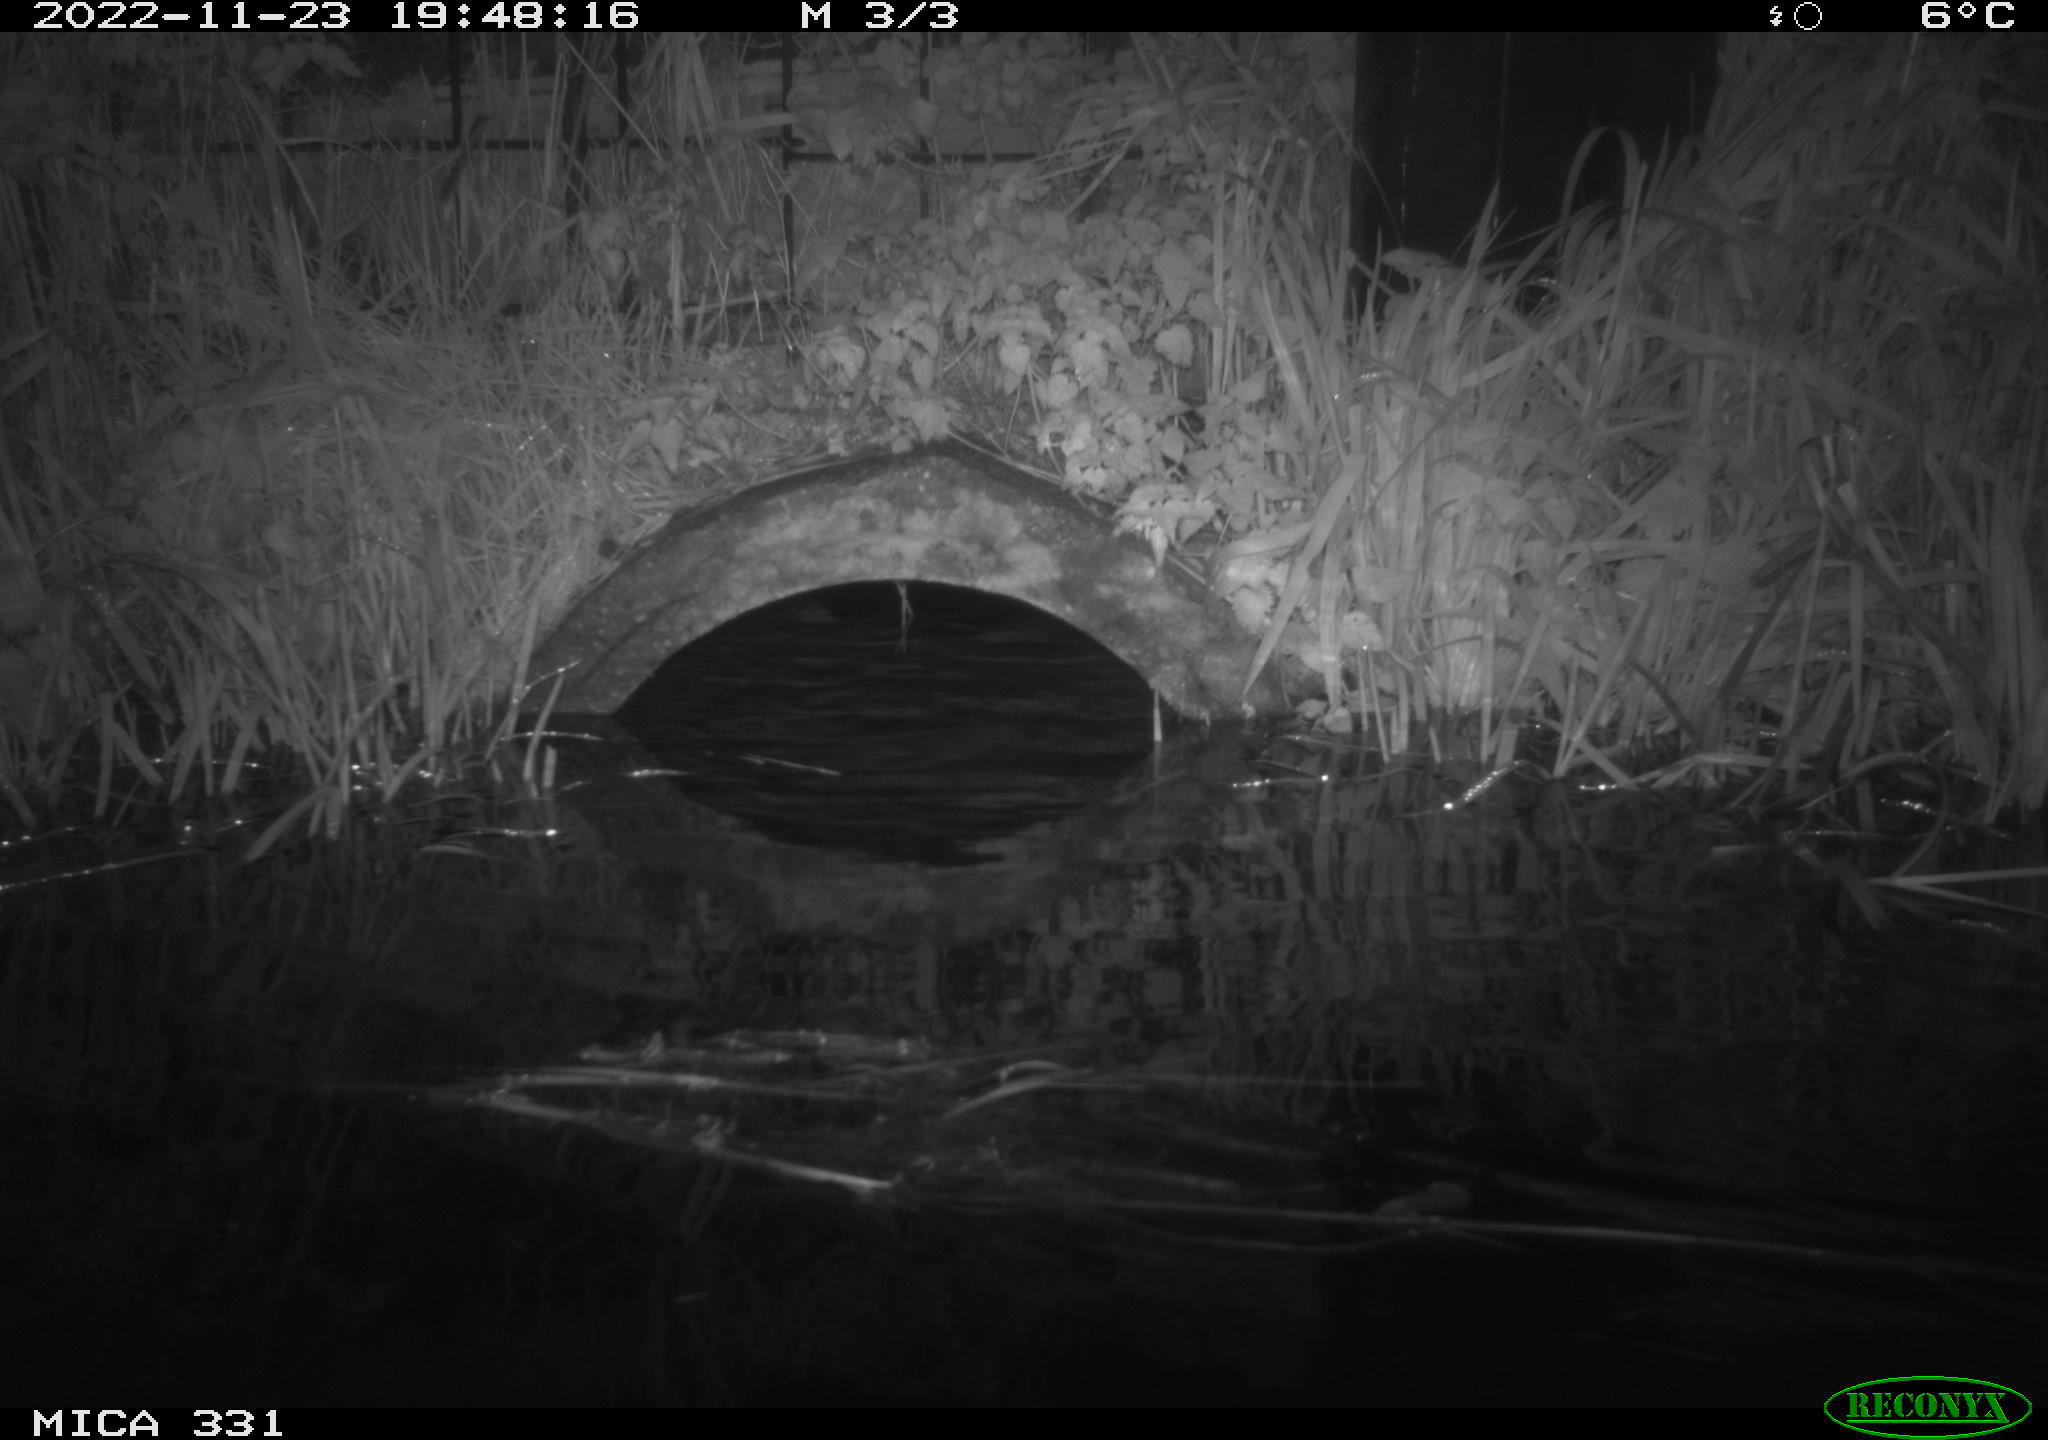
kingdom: Animalia
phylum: Chordata
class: Aves
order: Gruiformes
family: Rallidae
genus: Gallinula
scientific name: Gallinula chloropus
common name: Common moorhen
